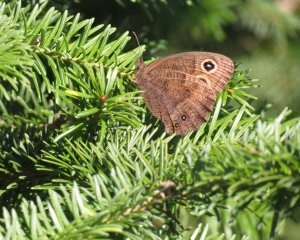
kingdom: Animalia
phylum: Arthropoda
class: Insecta
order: Lepidoptera
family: Nymphalidae
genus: Cercyonis
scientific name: Cercyonis pegala
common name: Common Wood-Nymph
